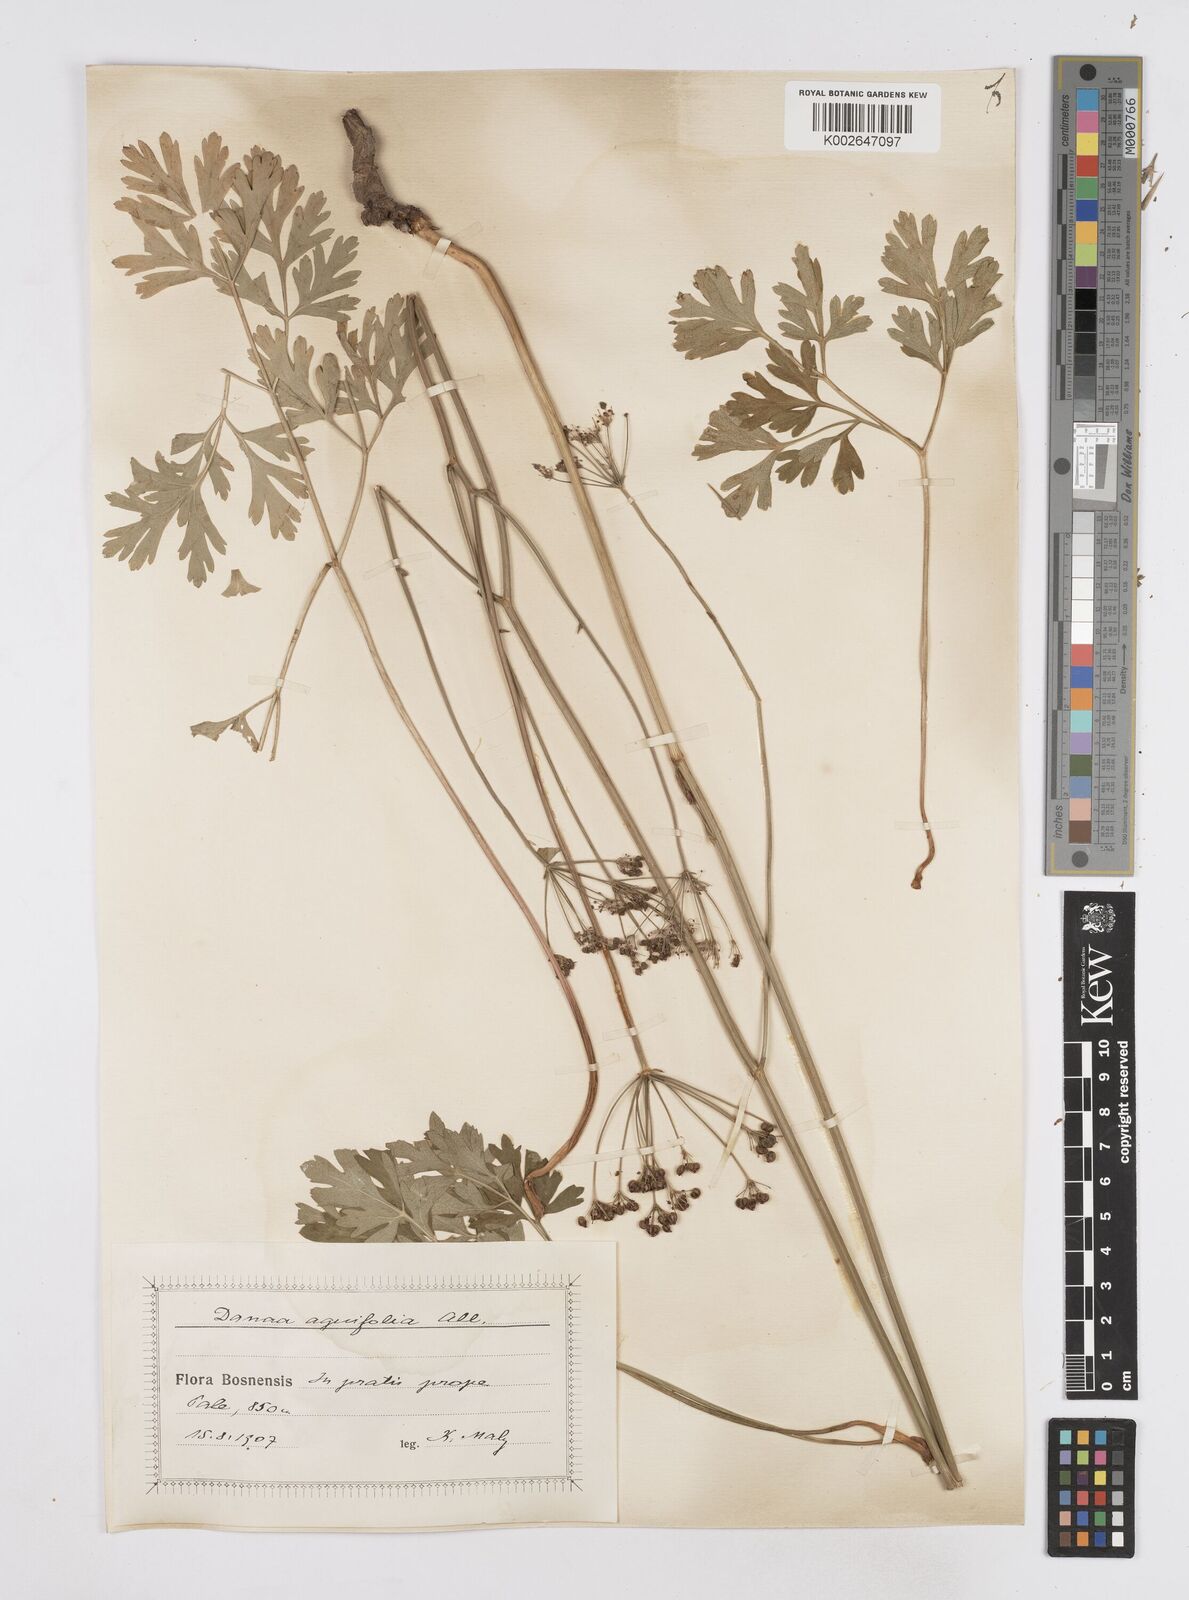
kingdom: Plantae
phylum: Tracheophyta
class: Magnoliopsida
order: Apiales
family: Apiaceae
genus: Physospermum
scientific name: Physospermum cornubiense
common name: Bladderseed
